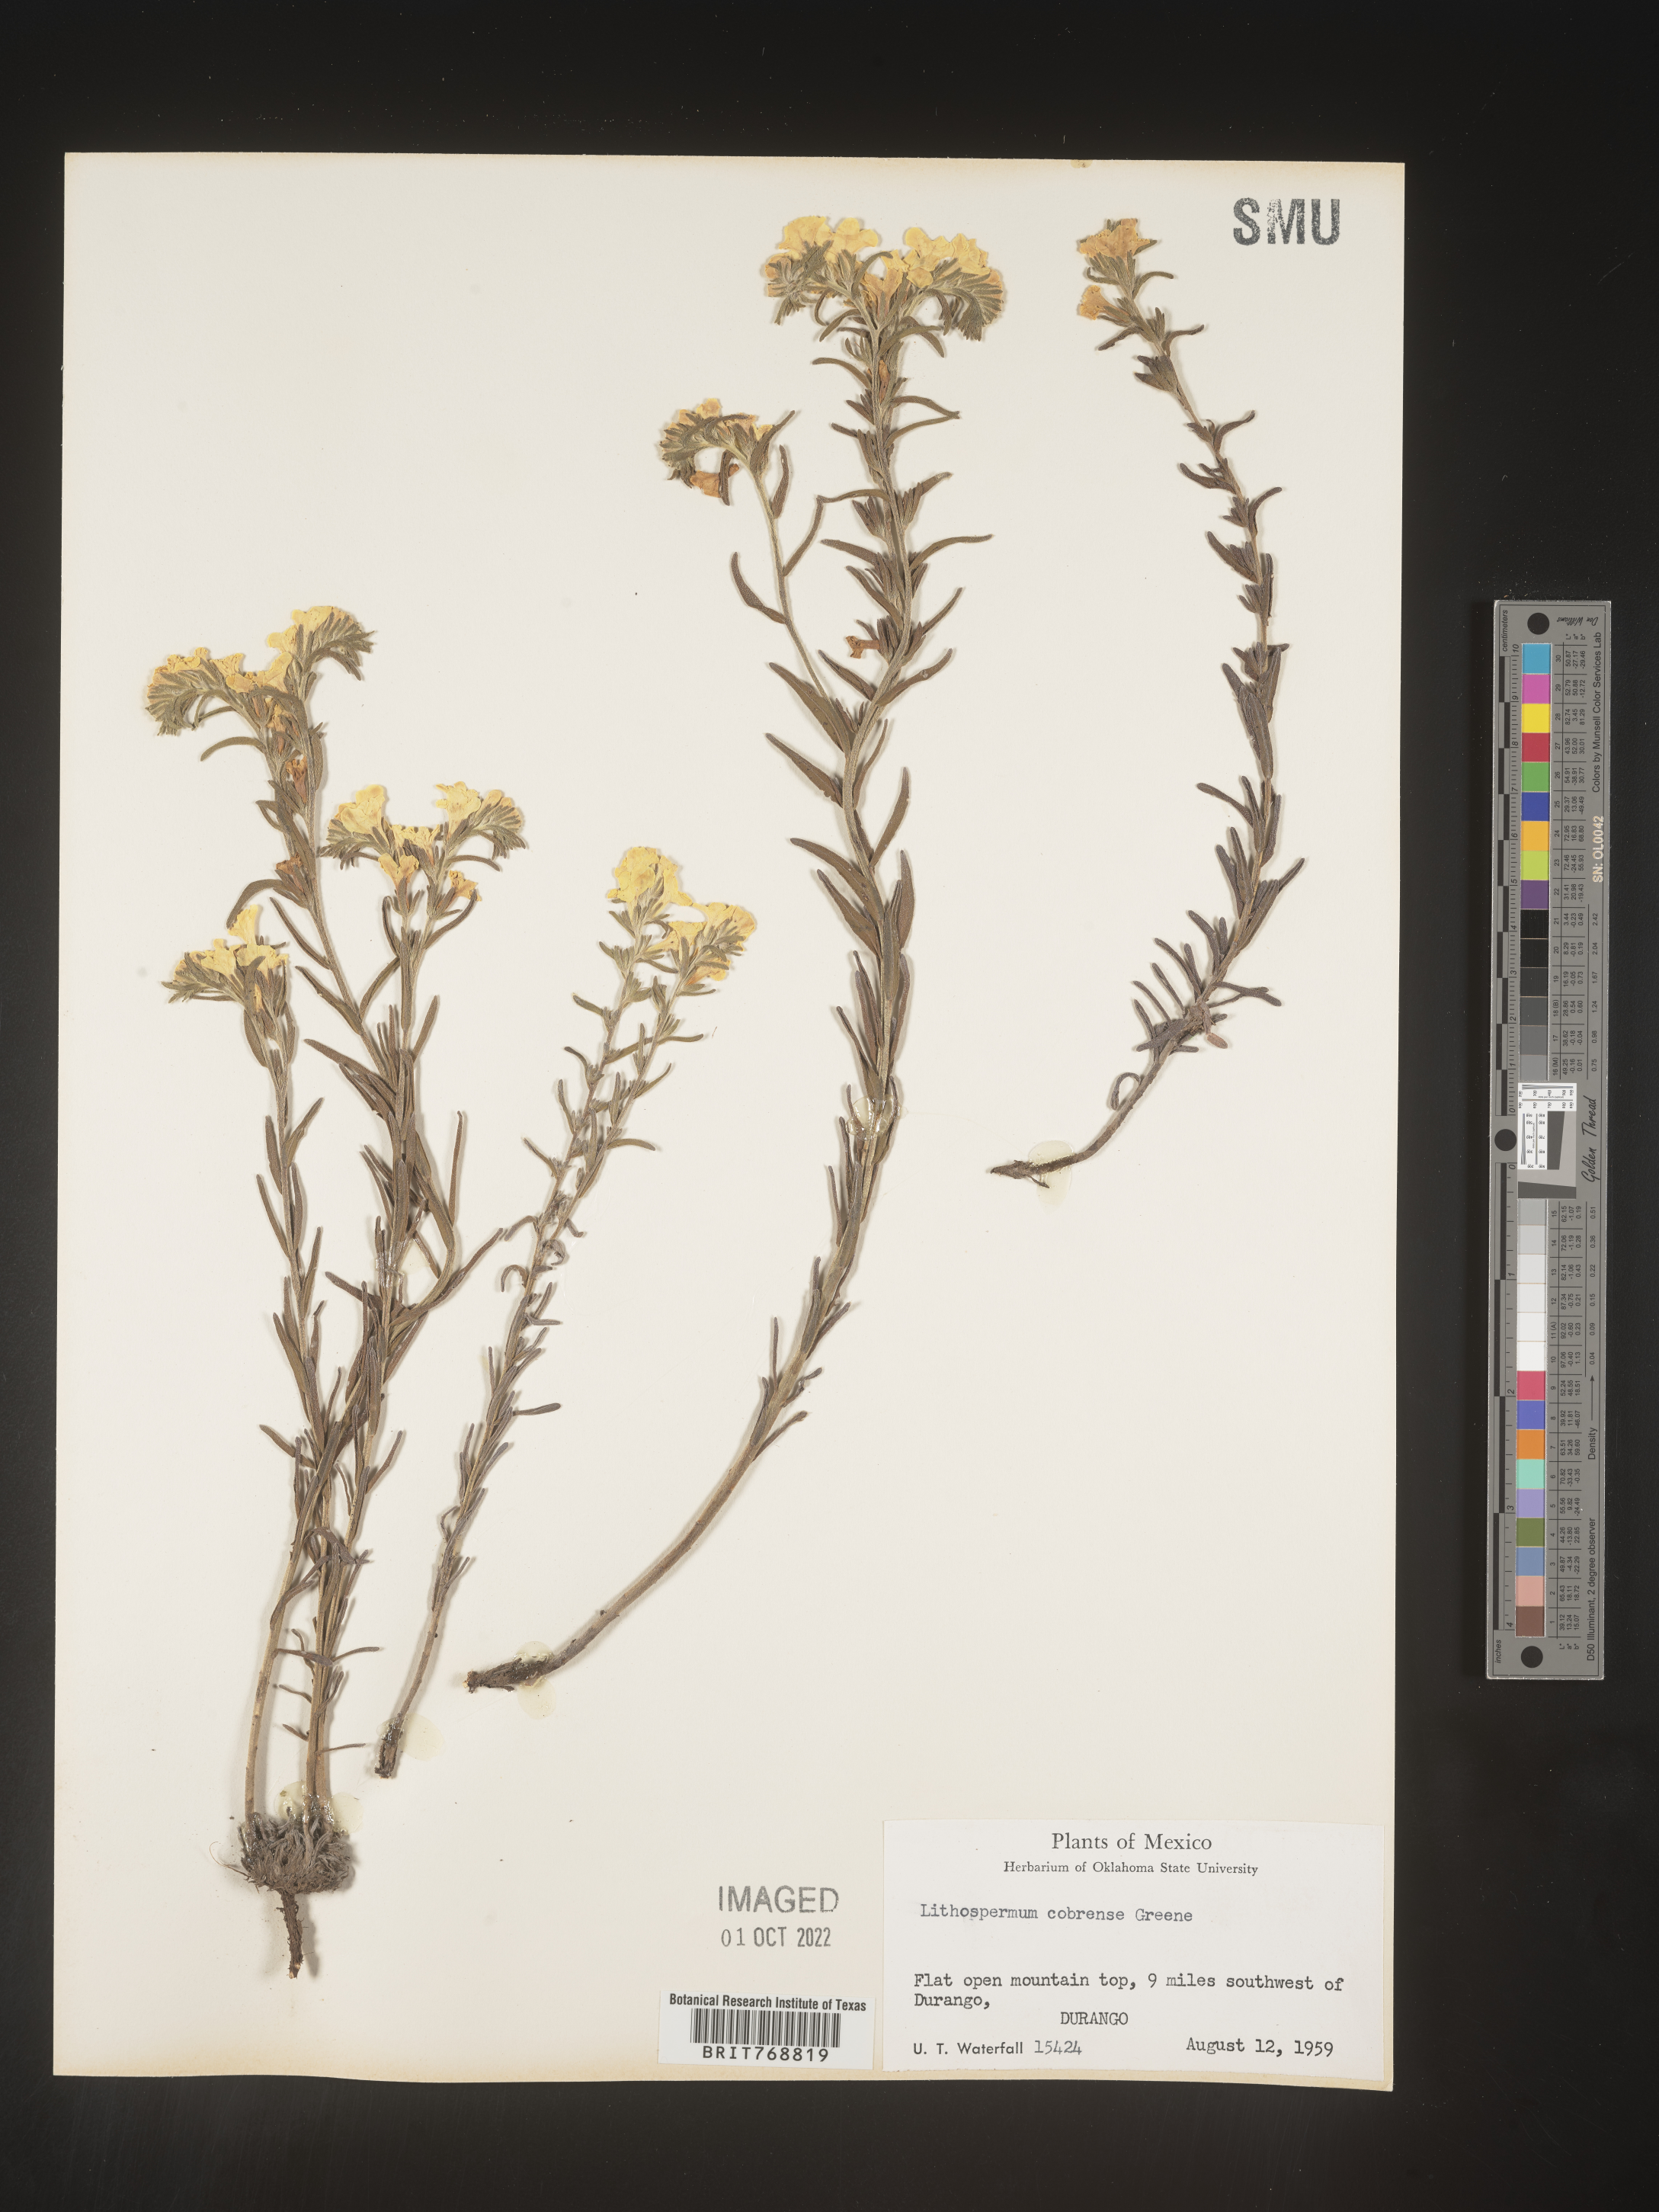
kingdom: Plantae
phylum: Tracheophyta
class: Magnoliopsida
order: Boraginales
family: Boraginaceae
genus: Lithospermum
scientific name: Lithospermum
